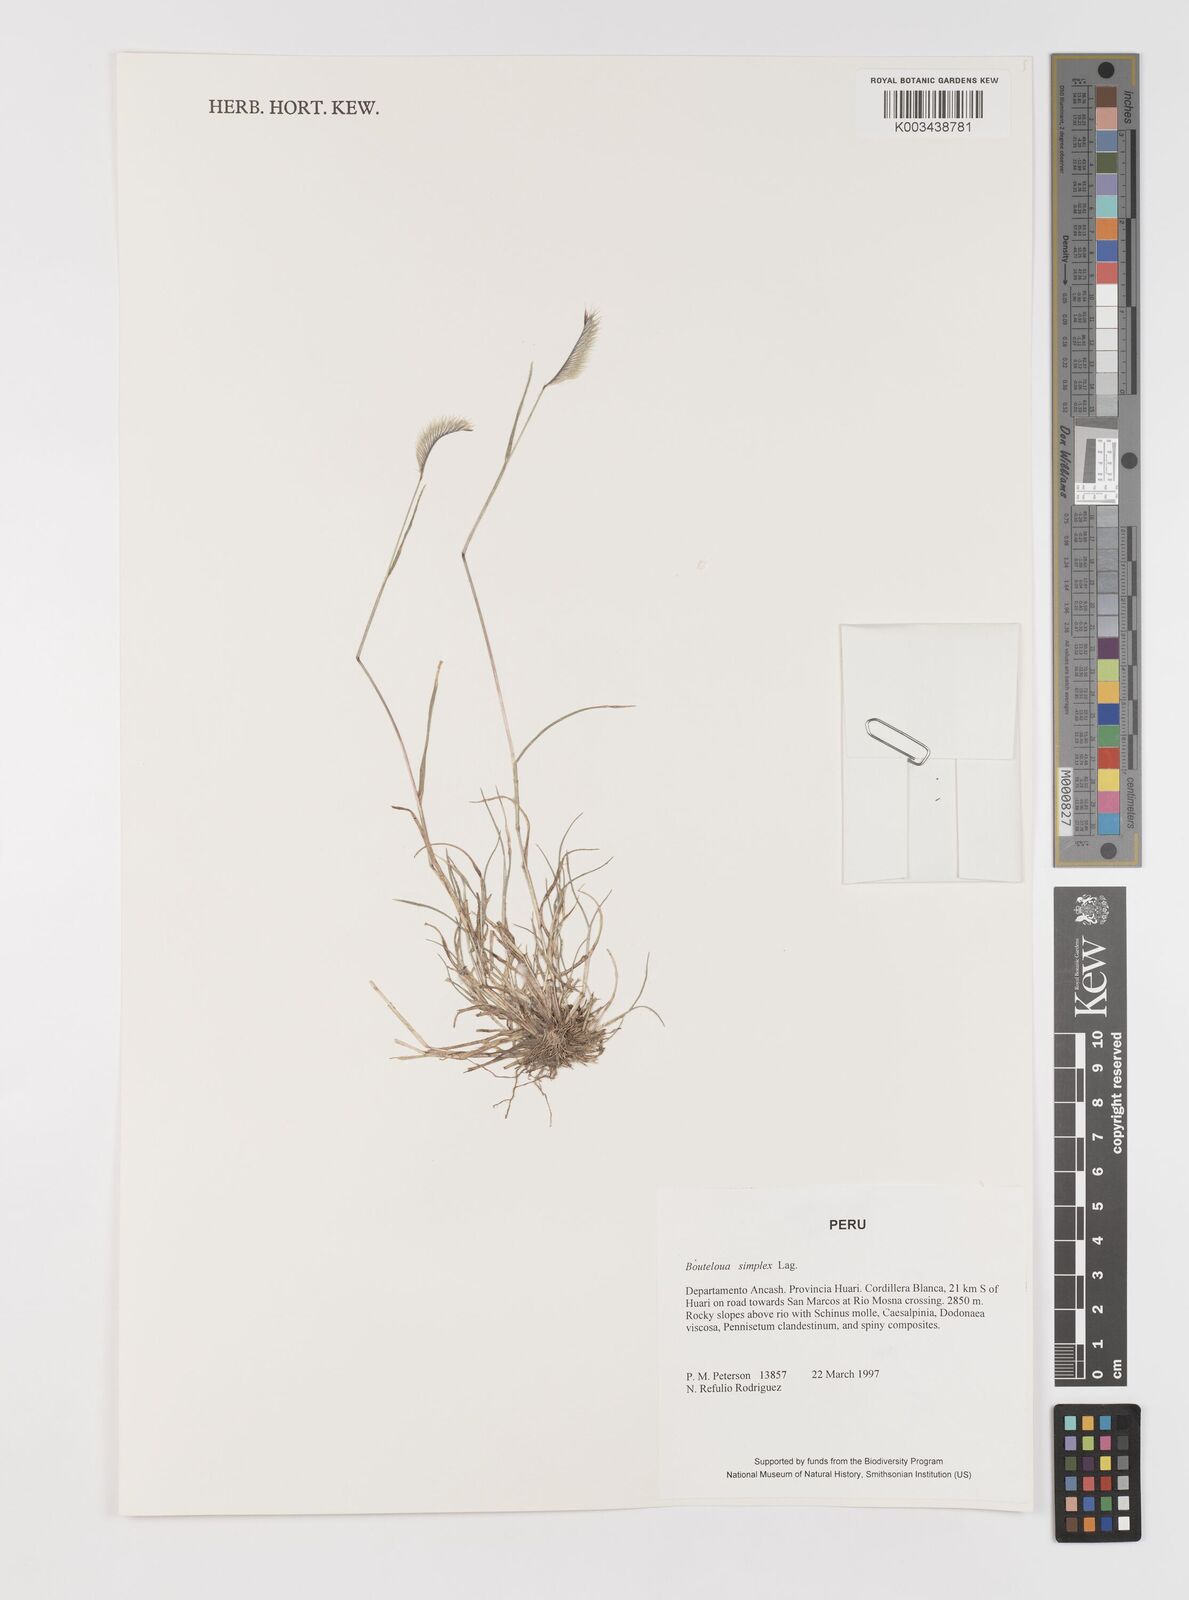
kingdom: Plantae
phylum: Tracheophyta
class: Liliopsida
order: Poales
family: Poaceae
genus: Bouteloua
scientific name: Bouteloua simplex
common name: Mat grama
